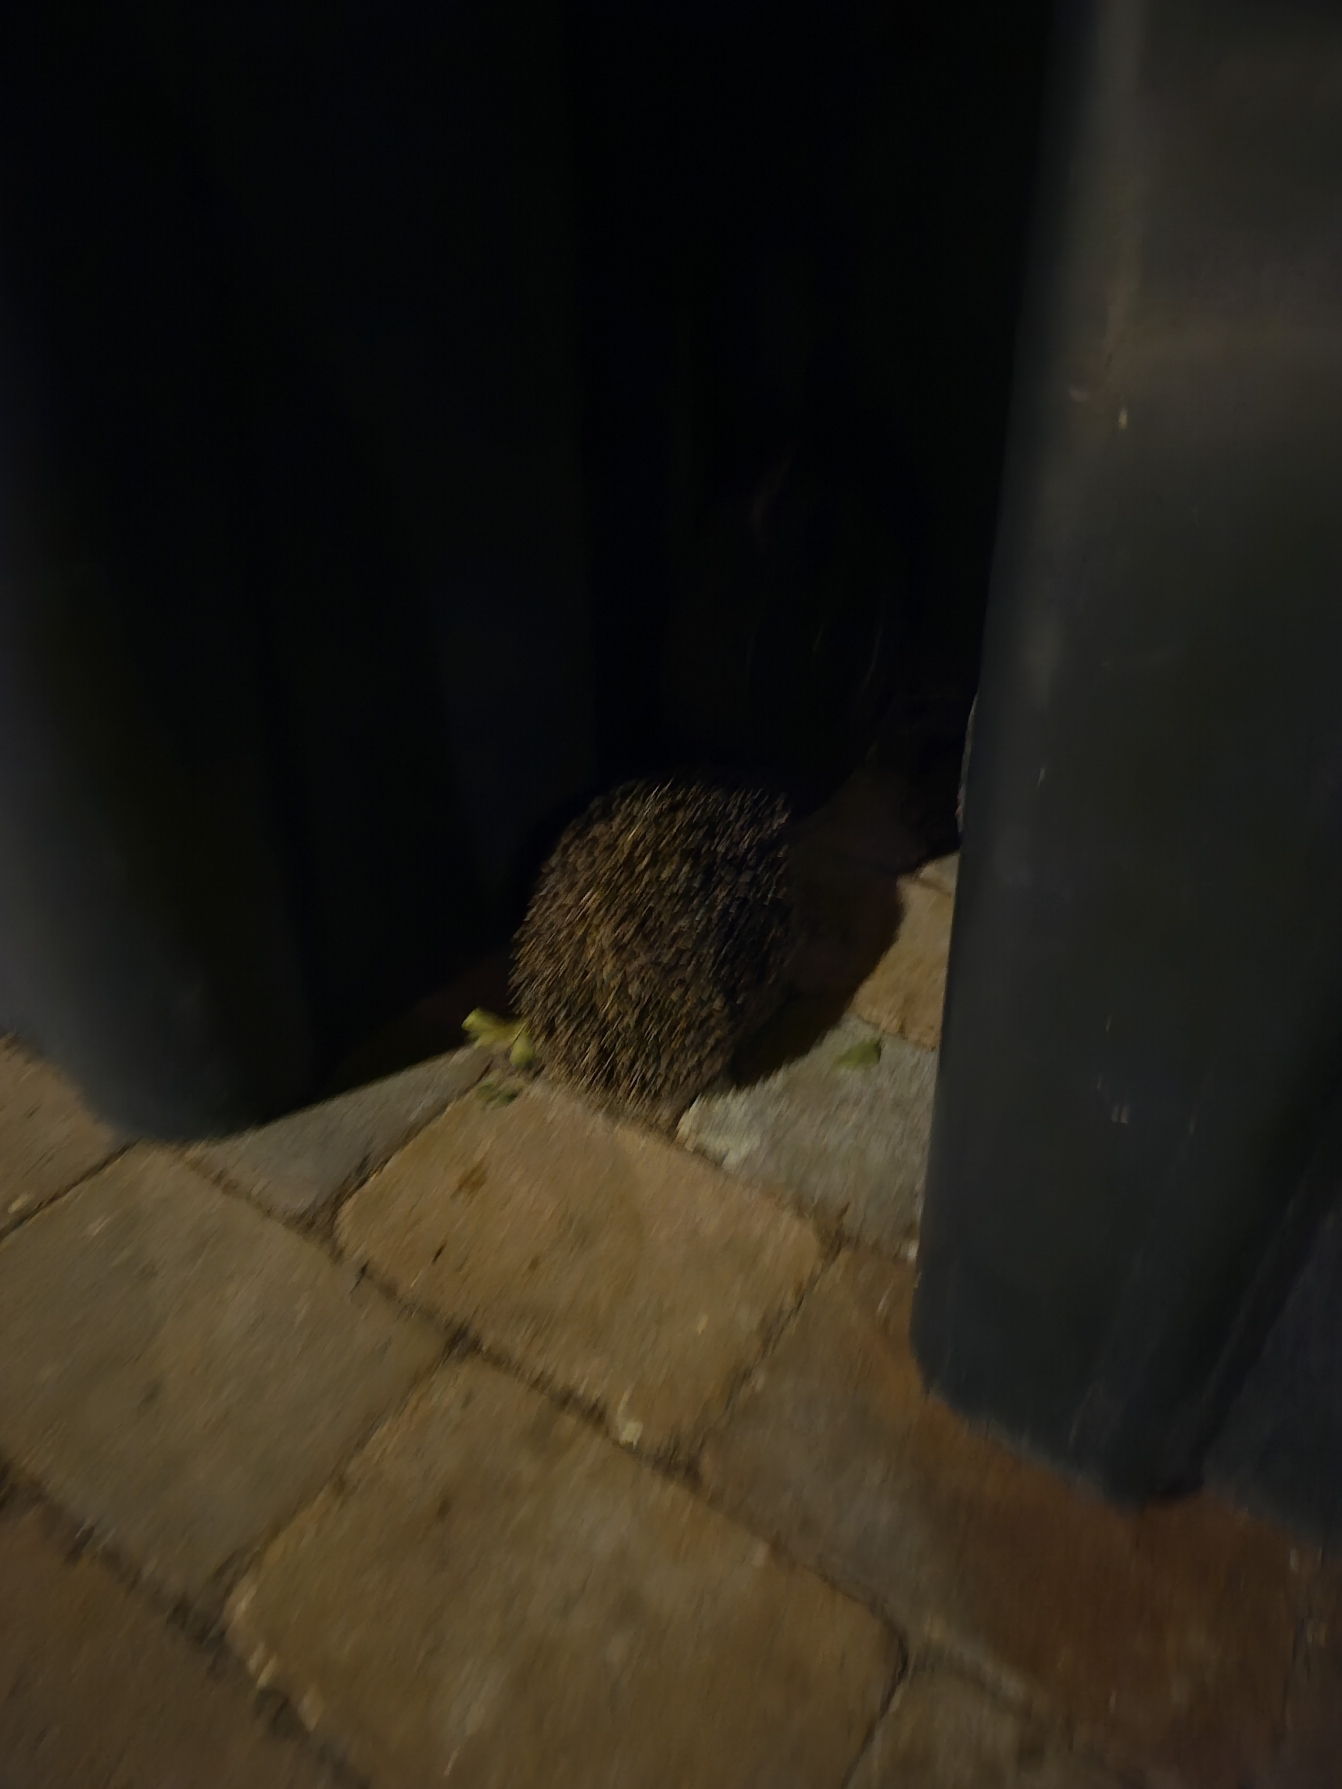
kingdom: Animalia
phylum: Chordata
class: Mammalia
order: Erinaceomorpha
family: Erinaceidae
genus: Erinaceus
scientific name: Erinaceus europaeus
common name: Pindsvin
